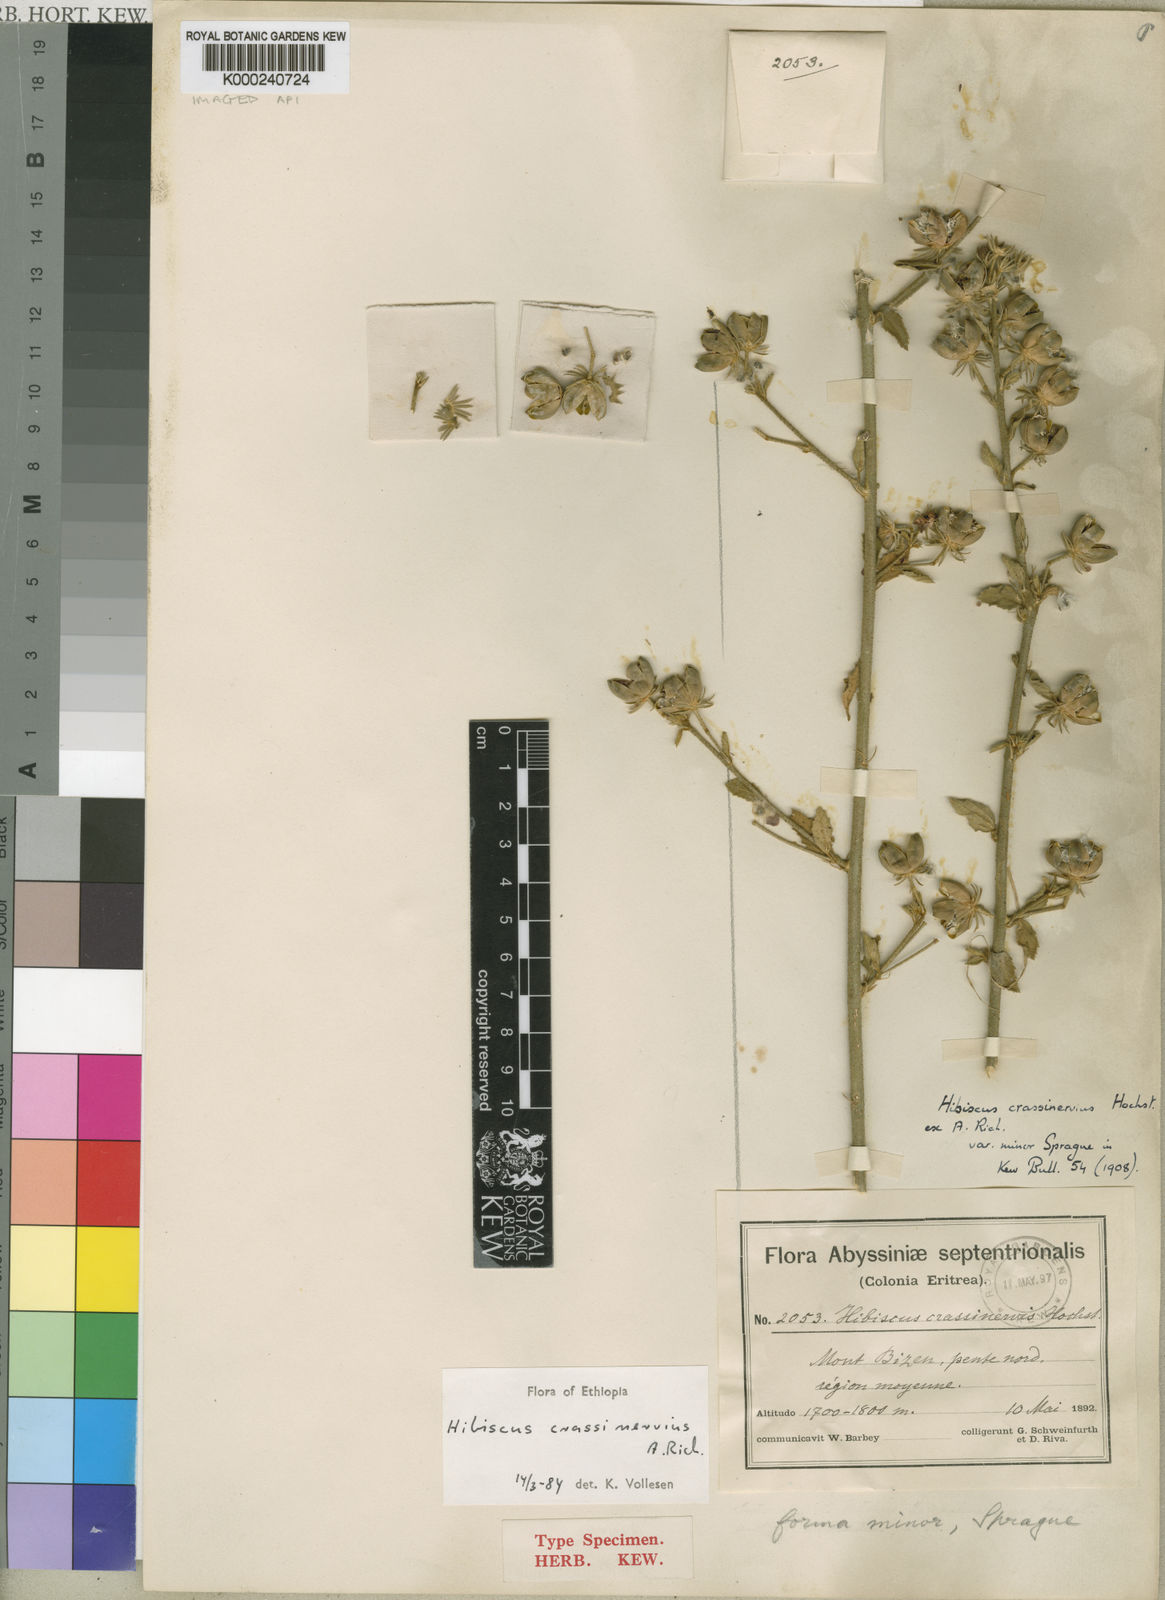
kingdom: Plantae
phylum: Tracheophyta
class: Magnoliopsida
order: Malvales
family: Malvaceae
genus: Hibiscus
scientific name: Hibiscus crassinervius
